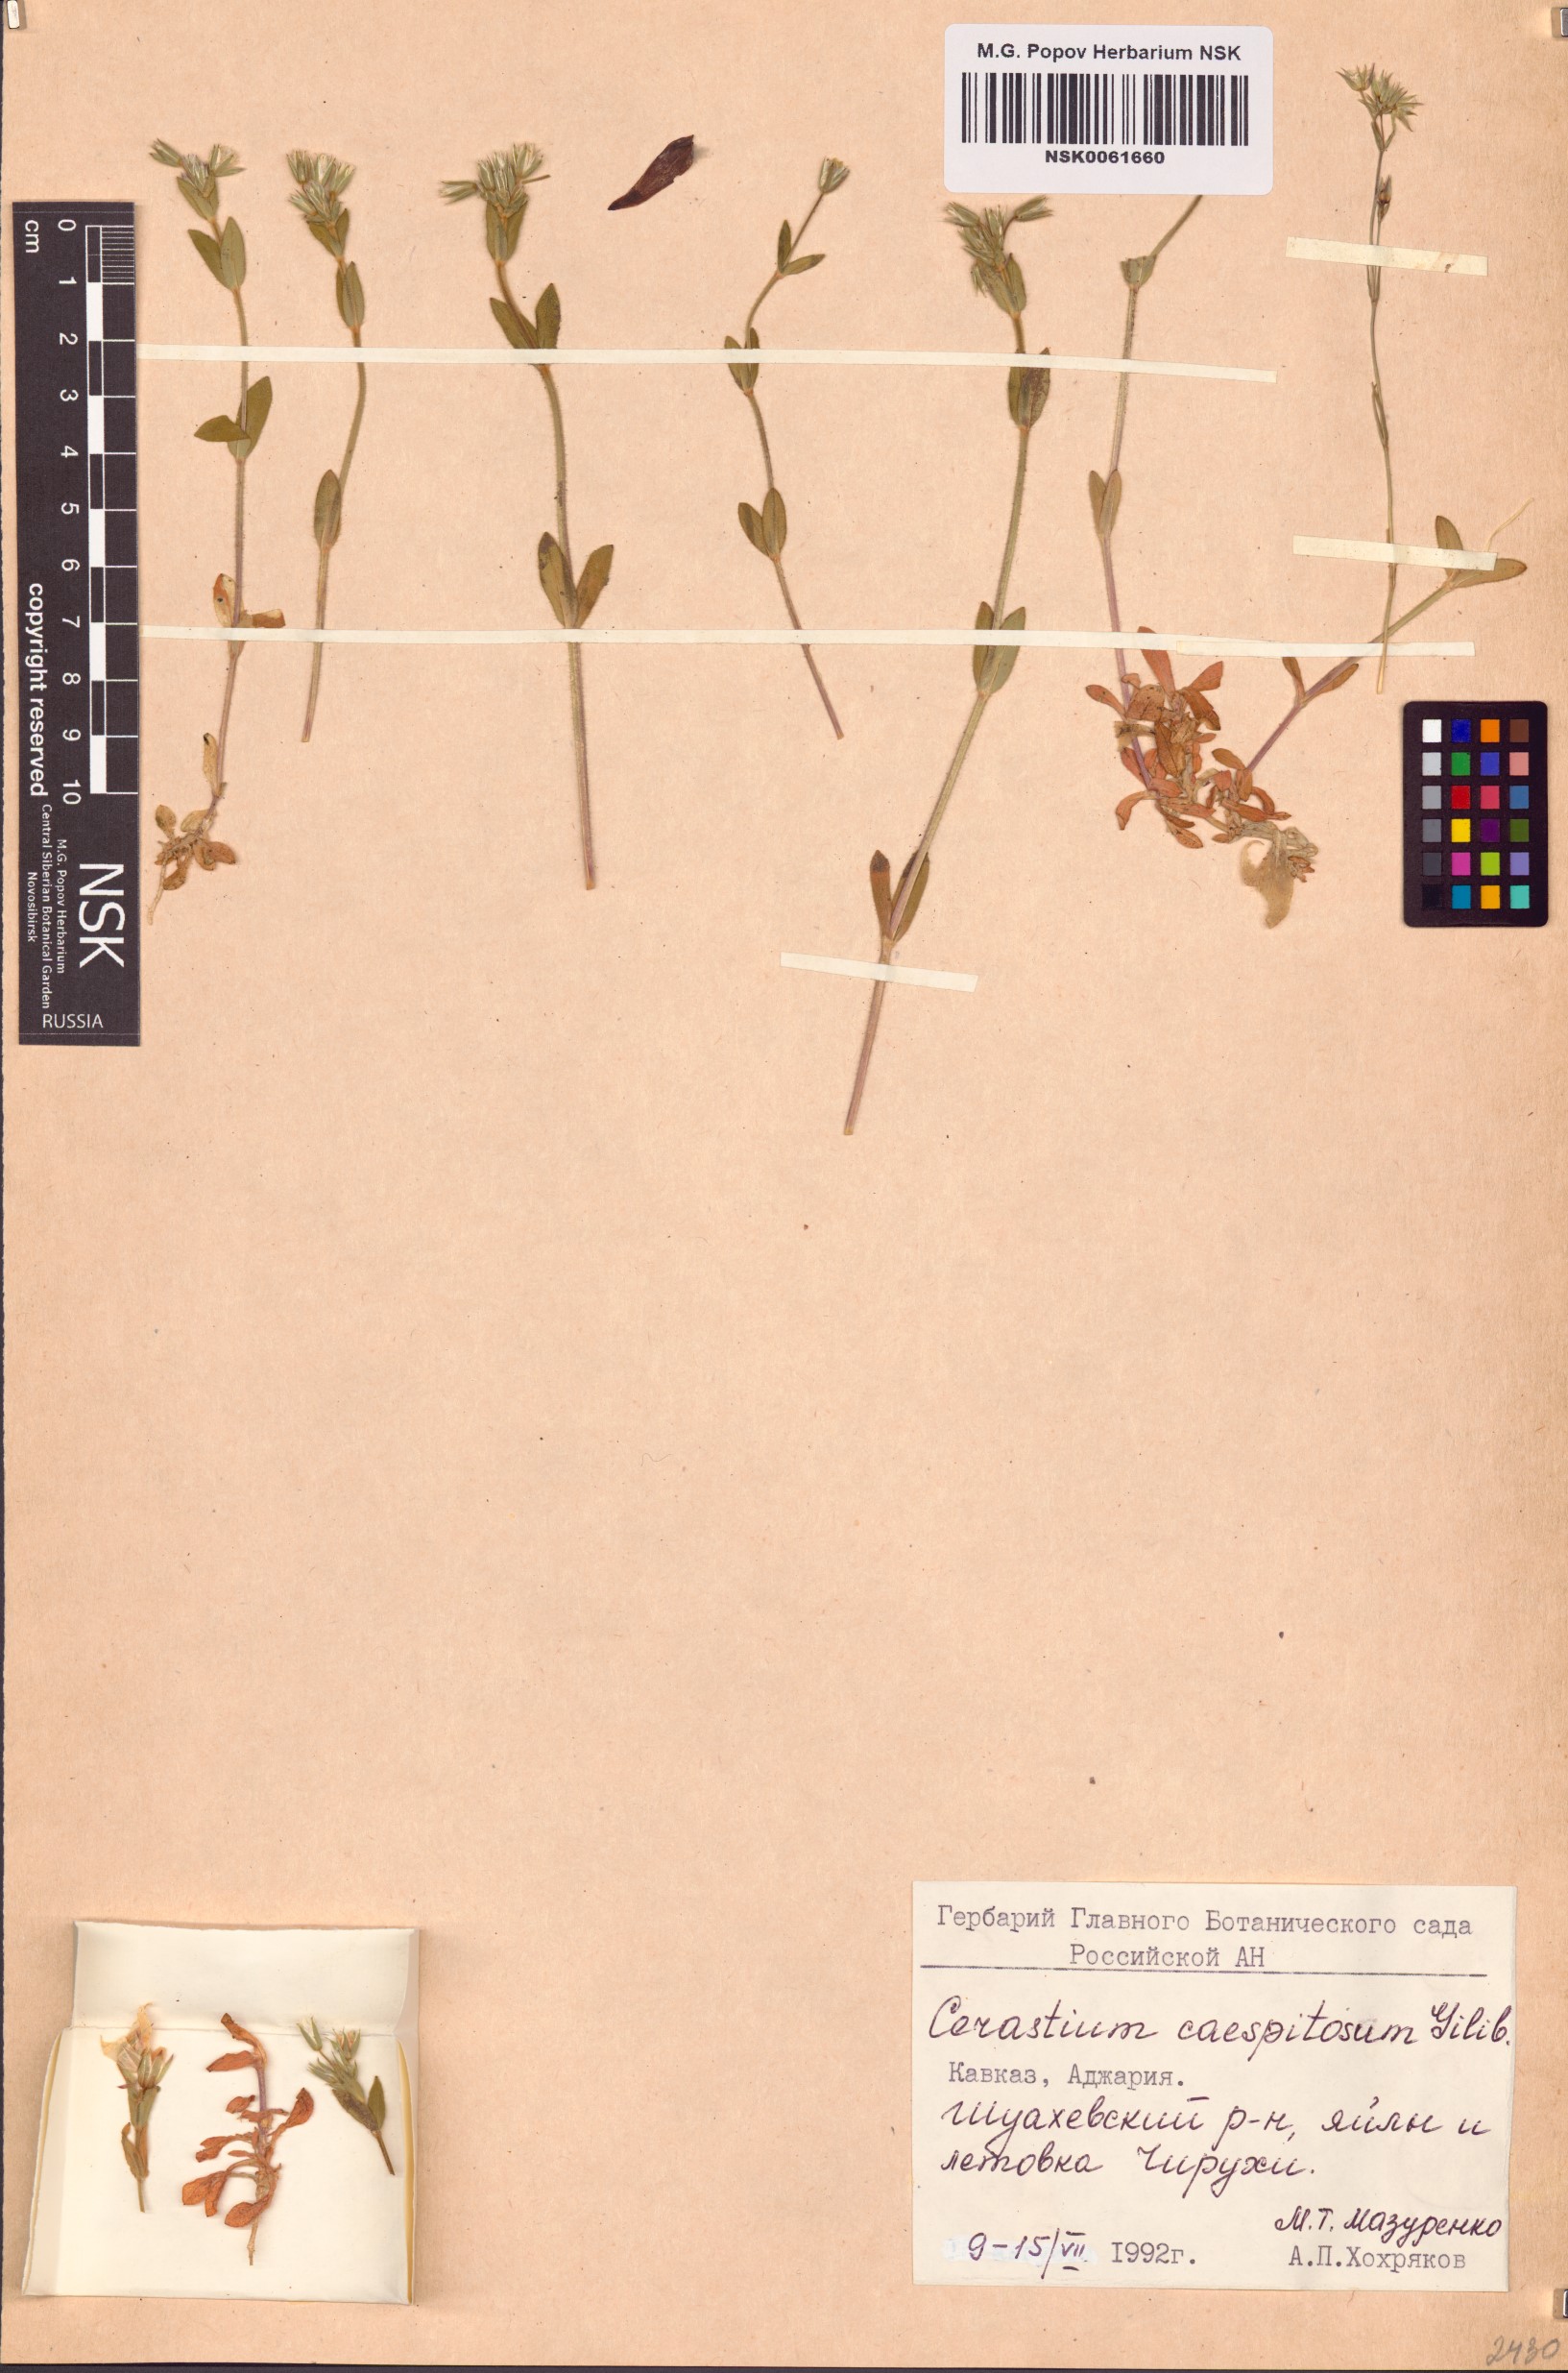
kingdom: Plantae
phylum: Tracheophyta
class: Magnoliopsida
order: Caryophyllales
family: Caryophyllaceae
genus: Cerastium
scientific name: Cerastium
